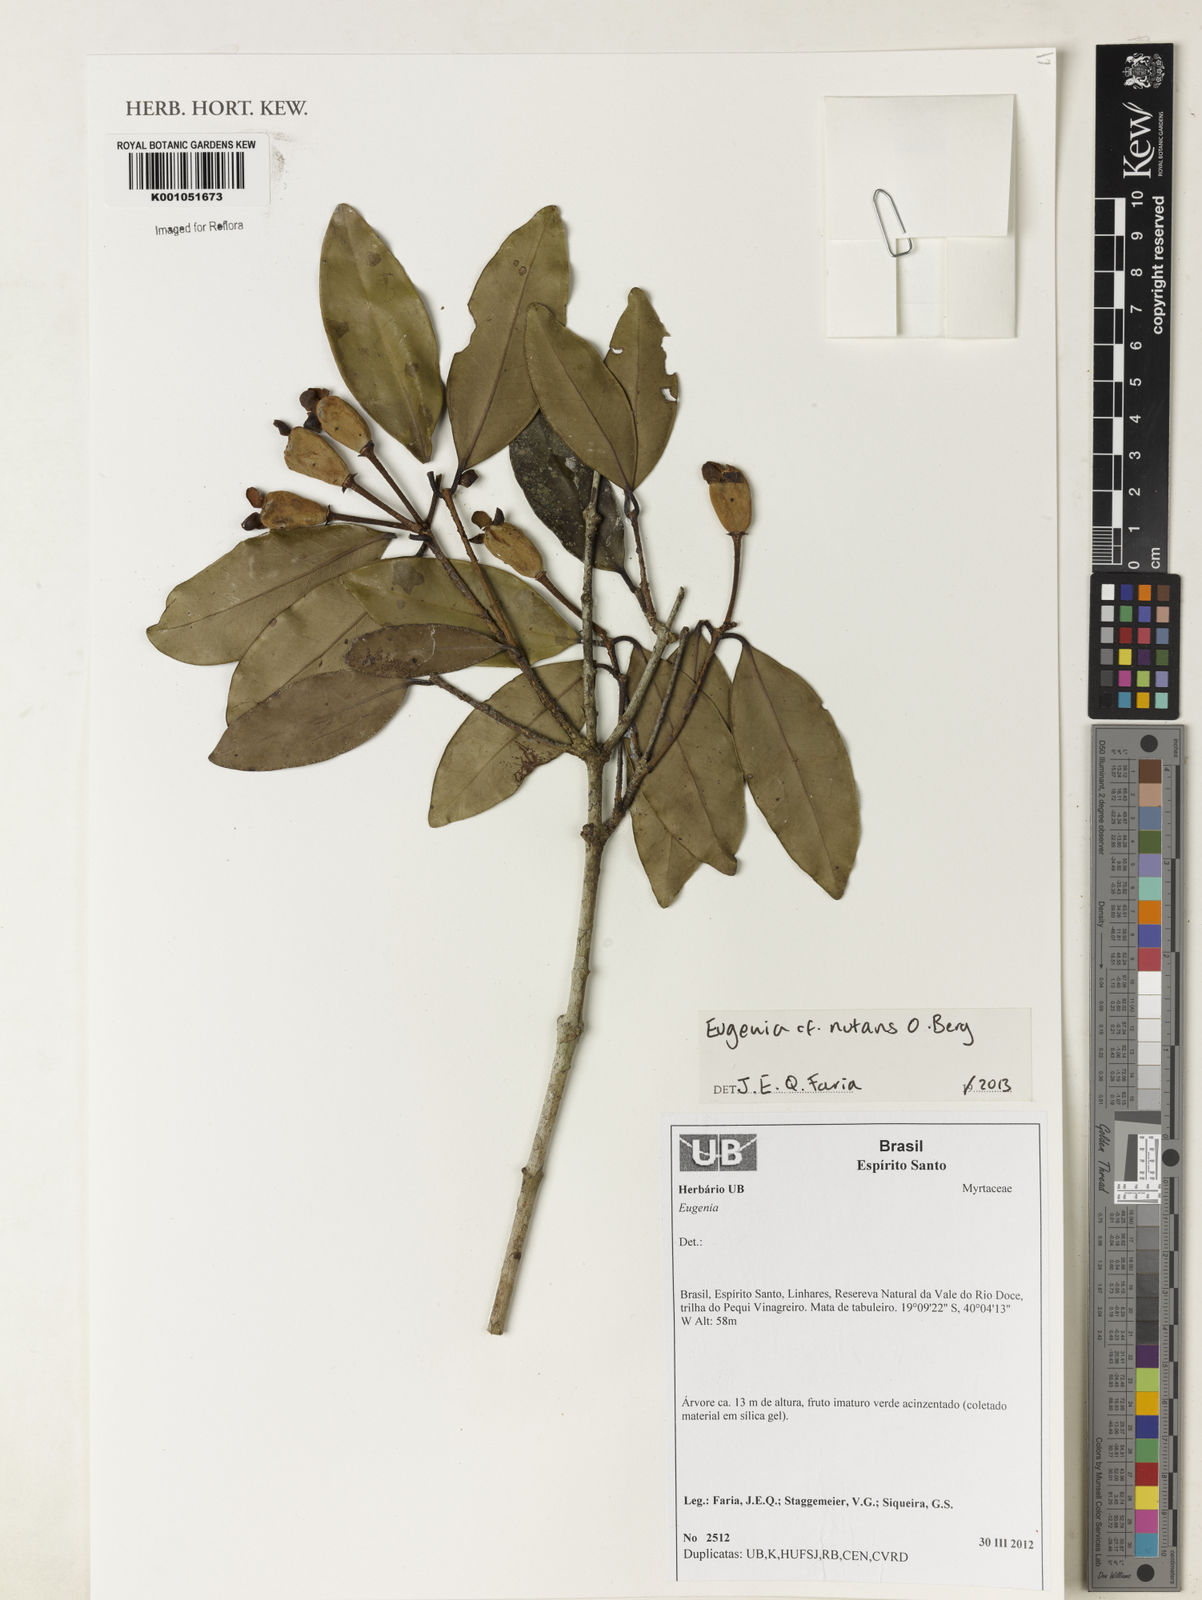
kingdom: Plantae
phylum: Tracheophyta
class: Magnoliopsida
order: Myrtales
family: Myrtaceae
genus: Eugenia
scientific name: Eugenia nutans
